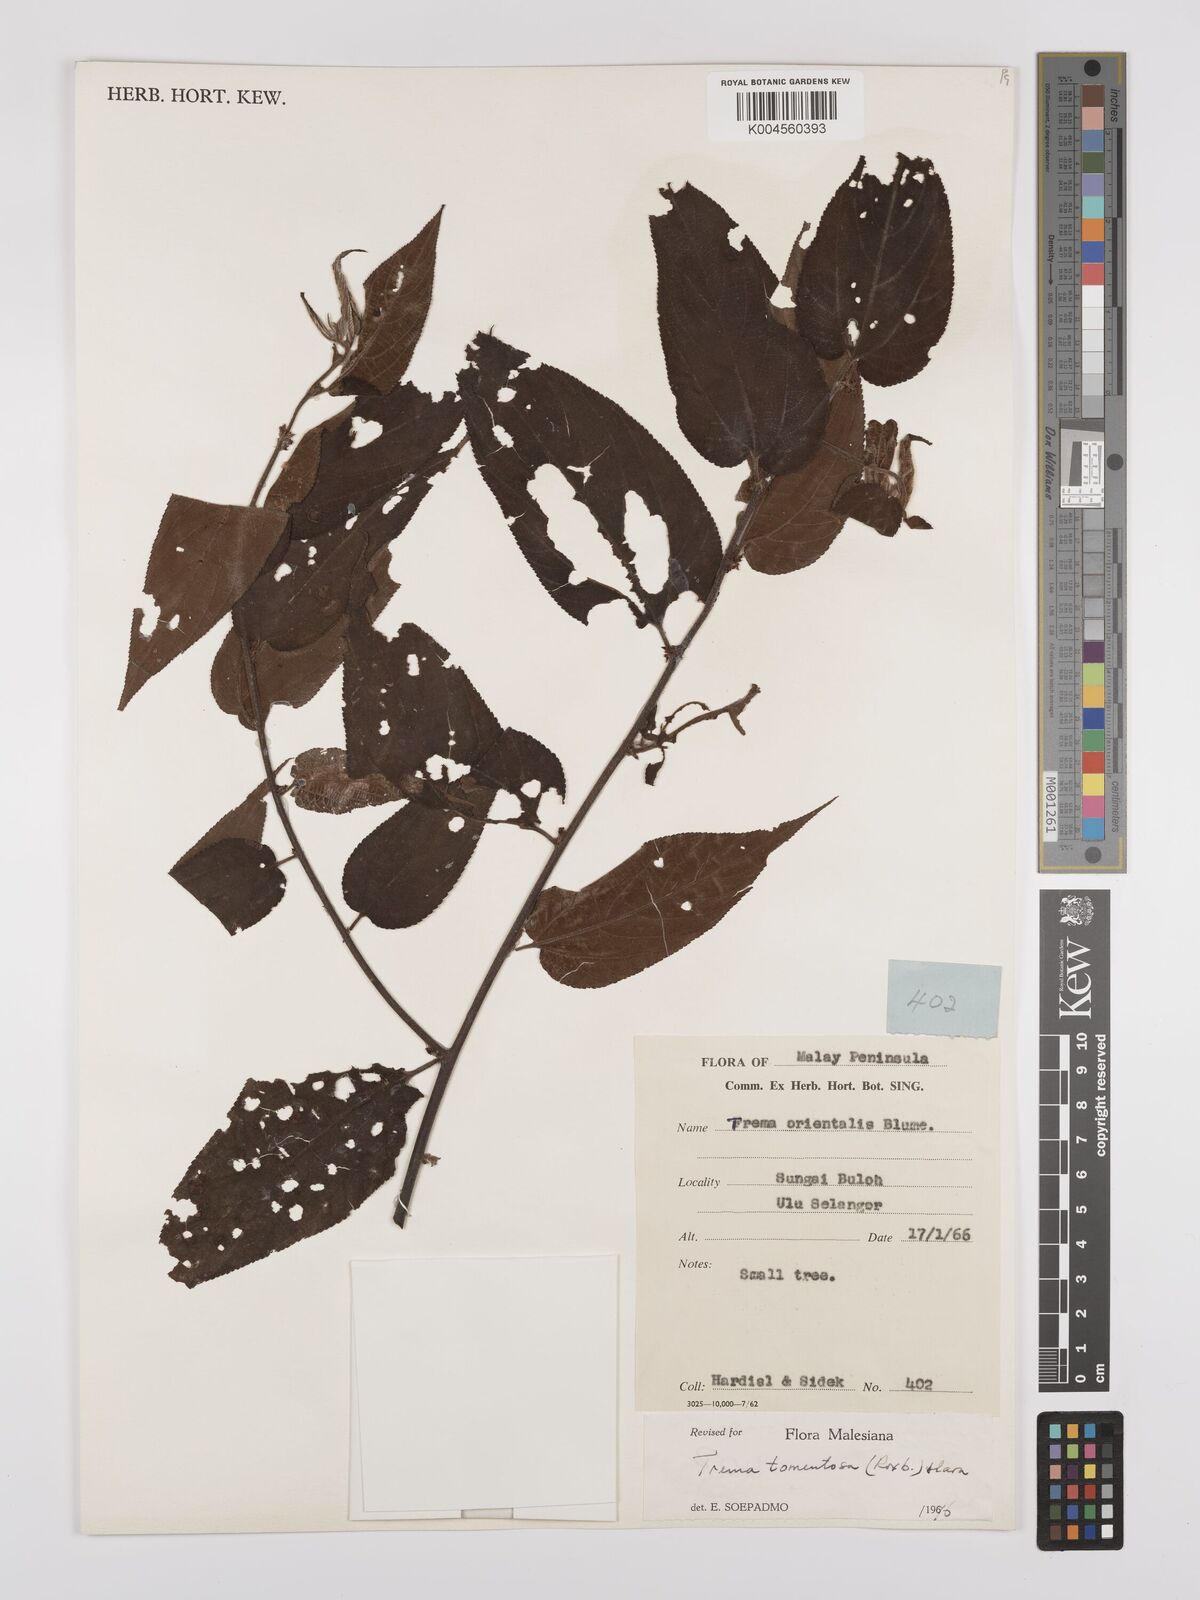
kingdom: Plantae
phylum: Tracheophyta
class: Magnoliopsida
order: Rosales
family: Cannabaceae
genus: Trema
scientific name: Trema tomentosum
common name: Peach-leaf-poisonbush
